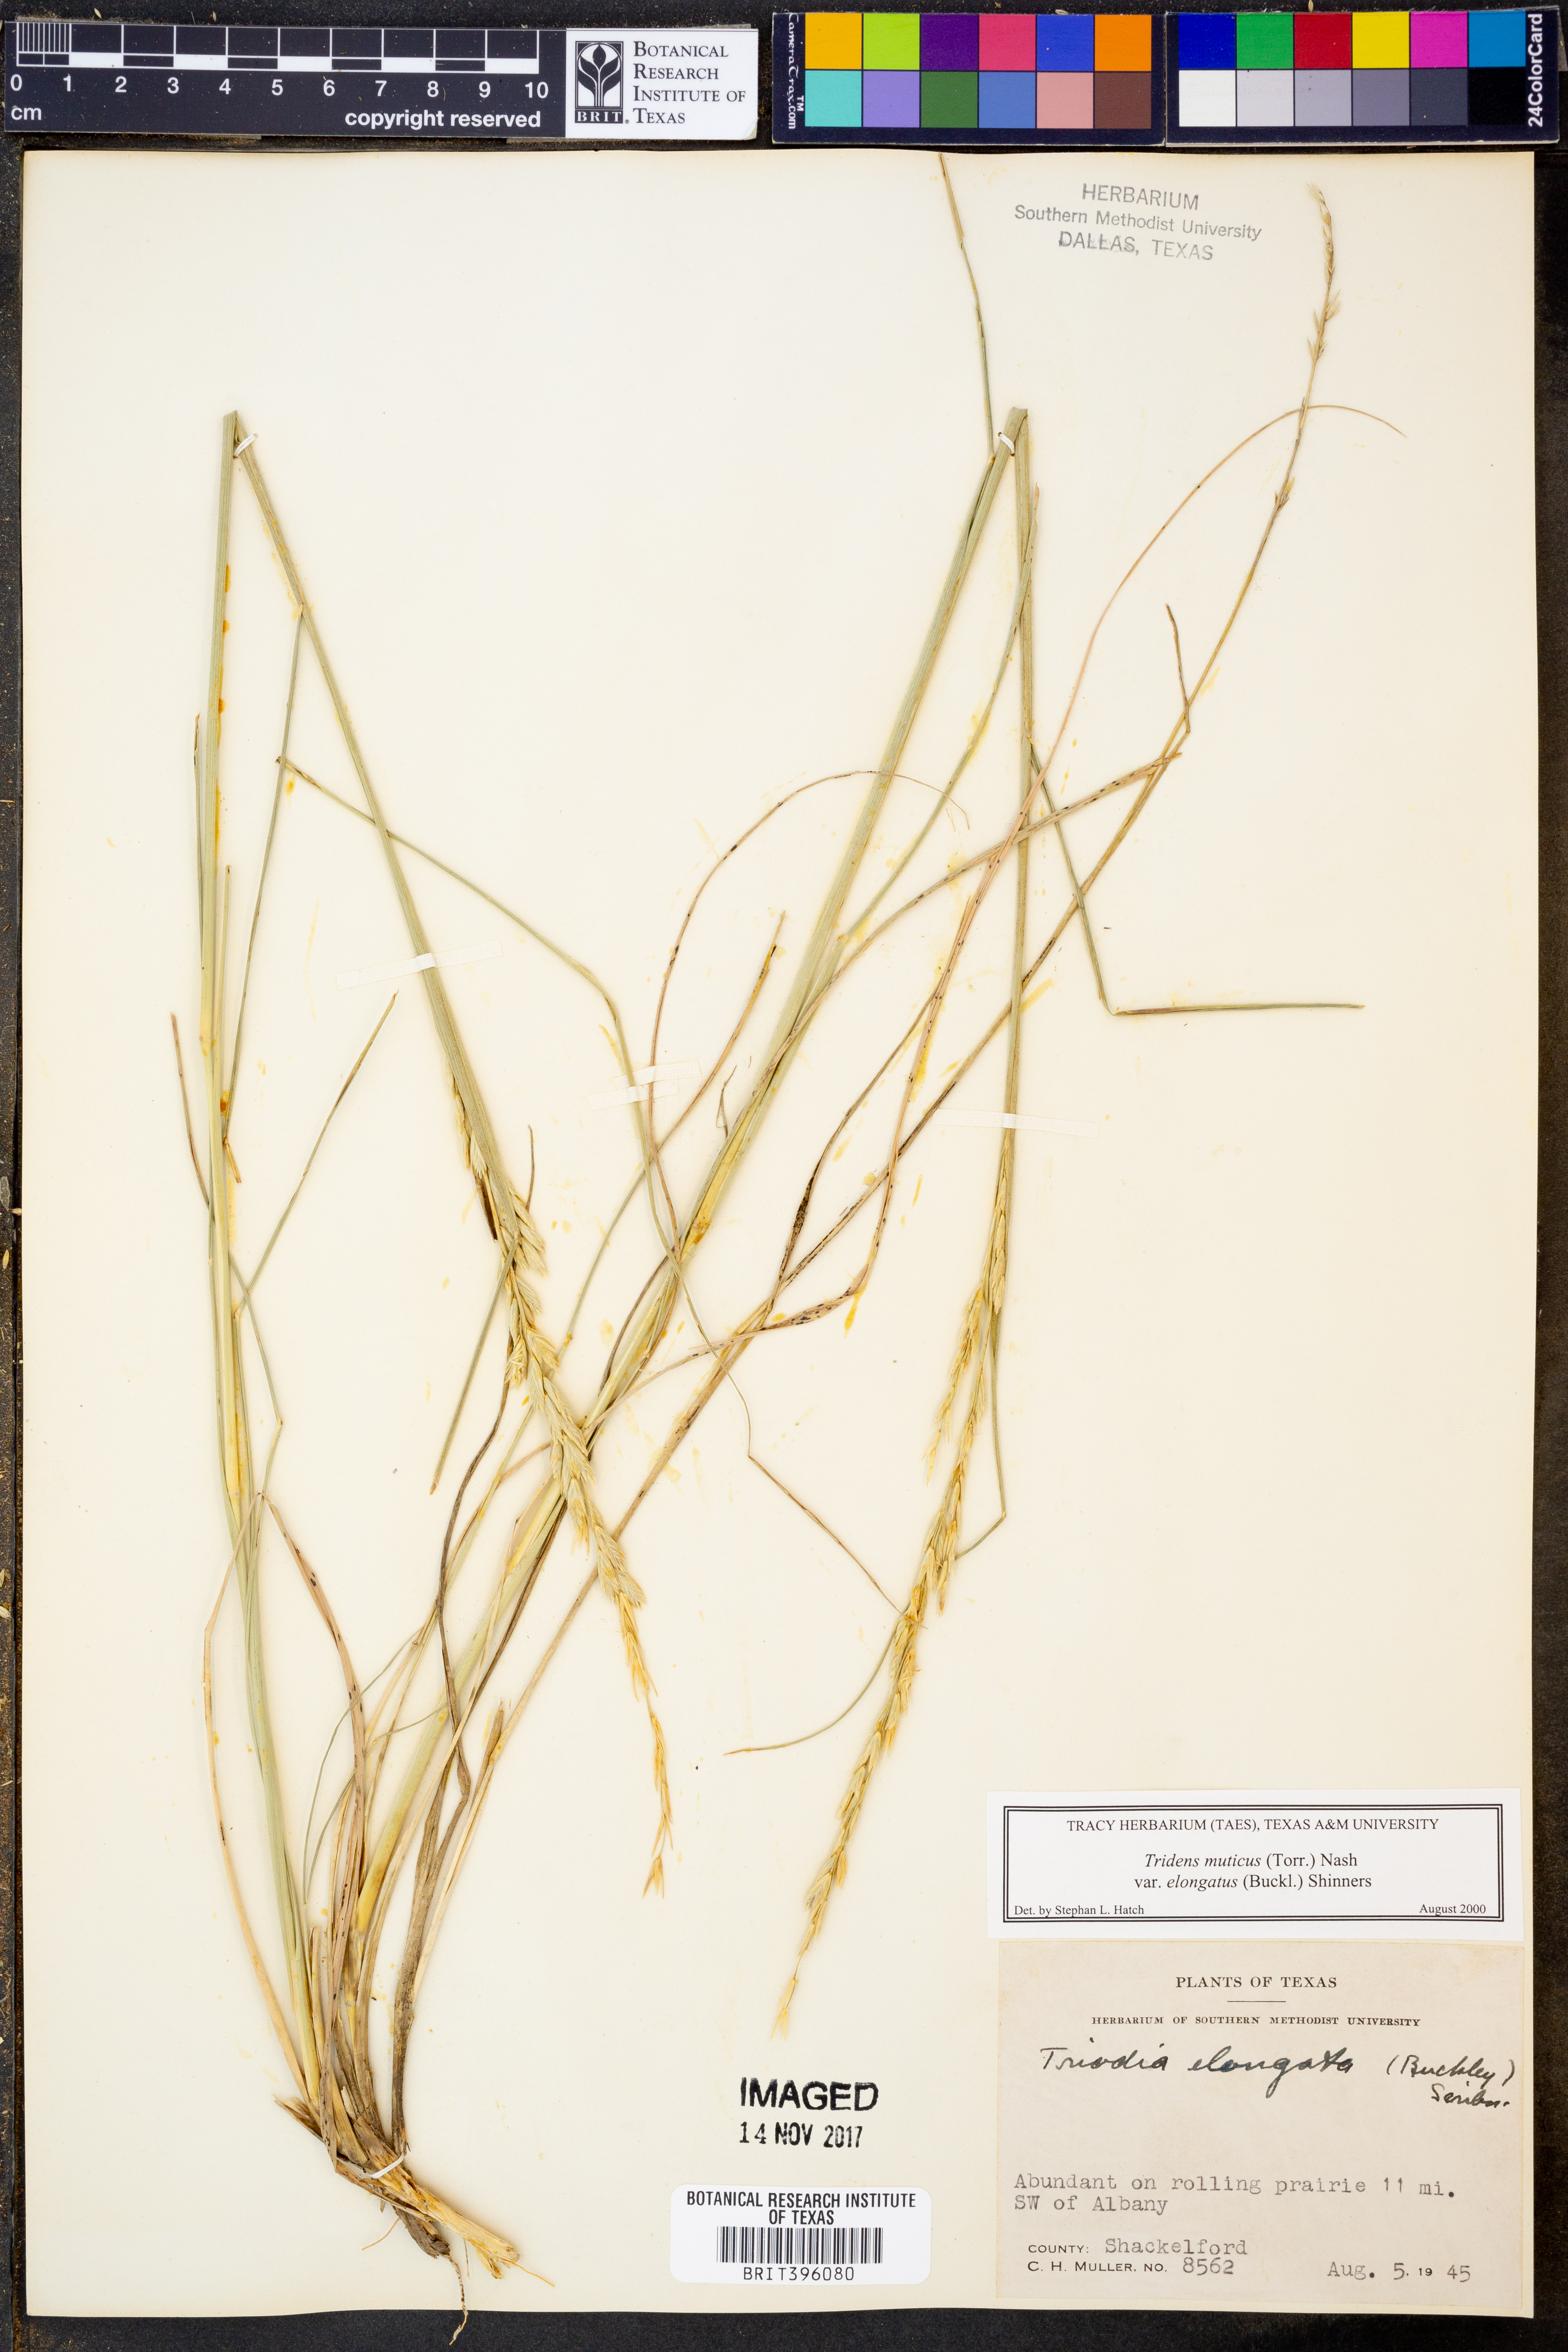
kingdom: Plantae
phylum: Tracheophyta
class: Liliopsida
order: Poales
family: Poaceae
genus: Tridentopsis
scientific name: Tridentopsis mutica
